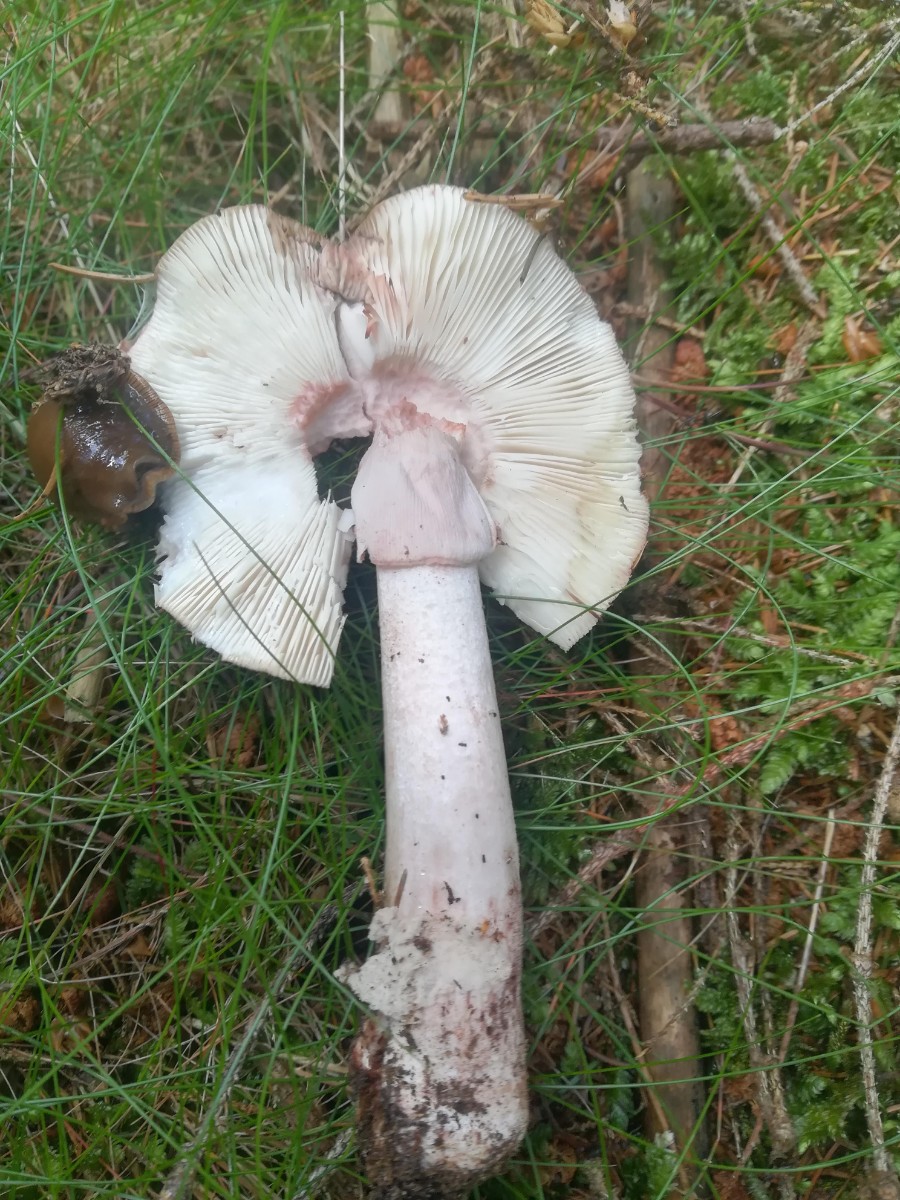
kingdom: Fungi
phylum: Basidiomycota
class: Agaricomycetes
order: Agaricales
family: Amanitaceae
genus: Amanita
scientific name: Amanita rubescens
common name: rødmende fluesvamp
